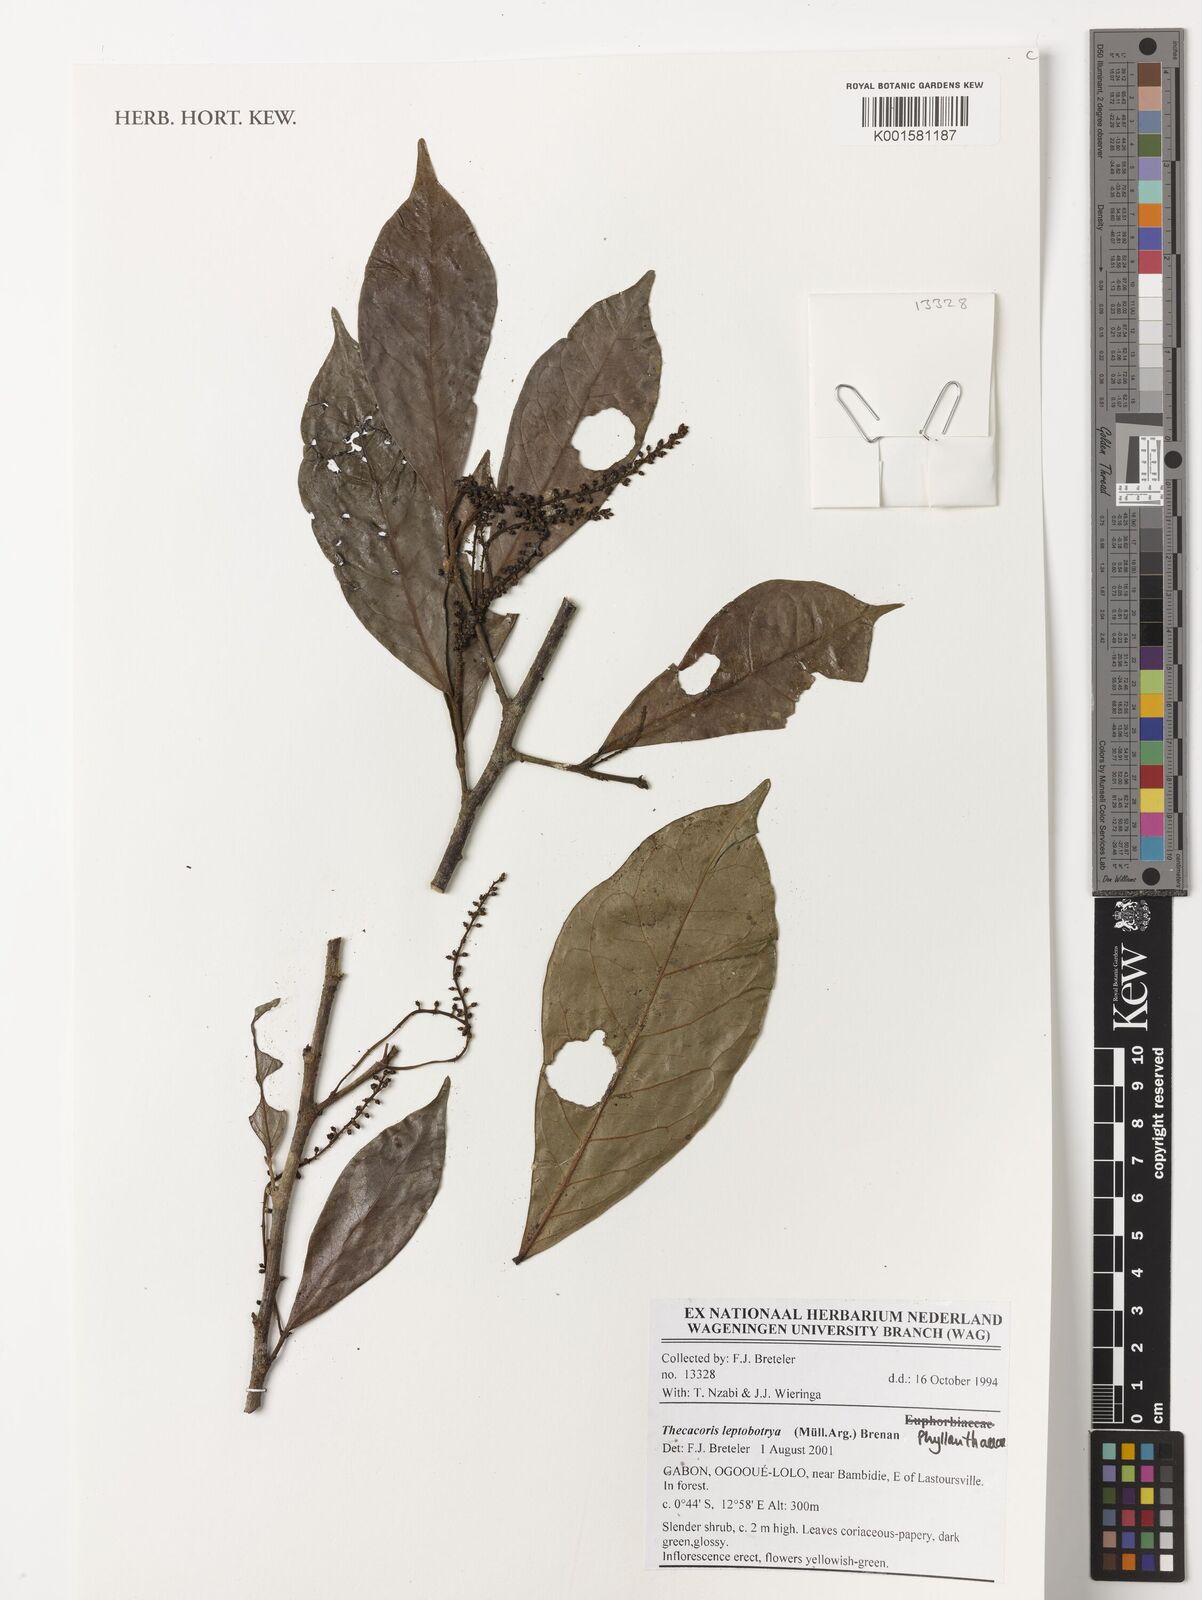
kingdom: Plantae
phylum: Tracheophyta
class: Magnoliopsida
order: Malpighiales
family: Phyllanthaceae
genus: Thecacoris
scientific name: Thecacoris leptobotrya
